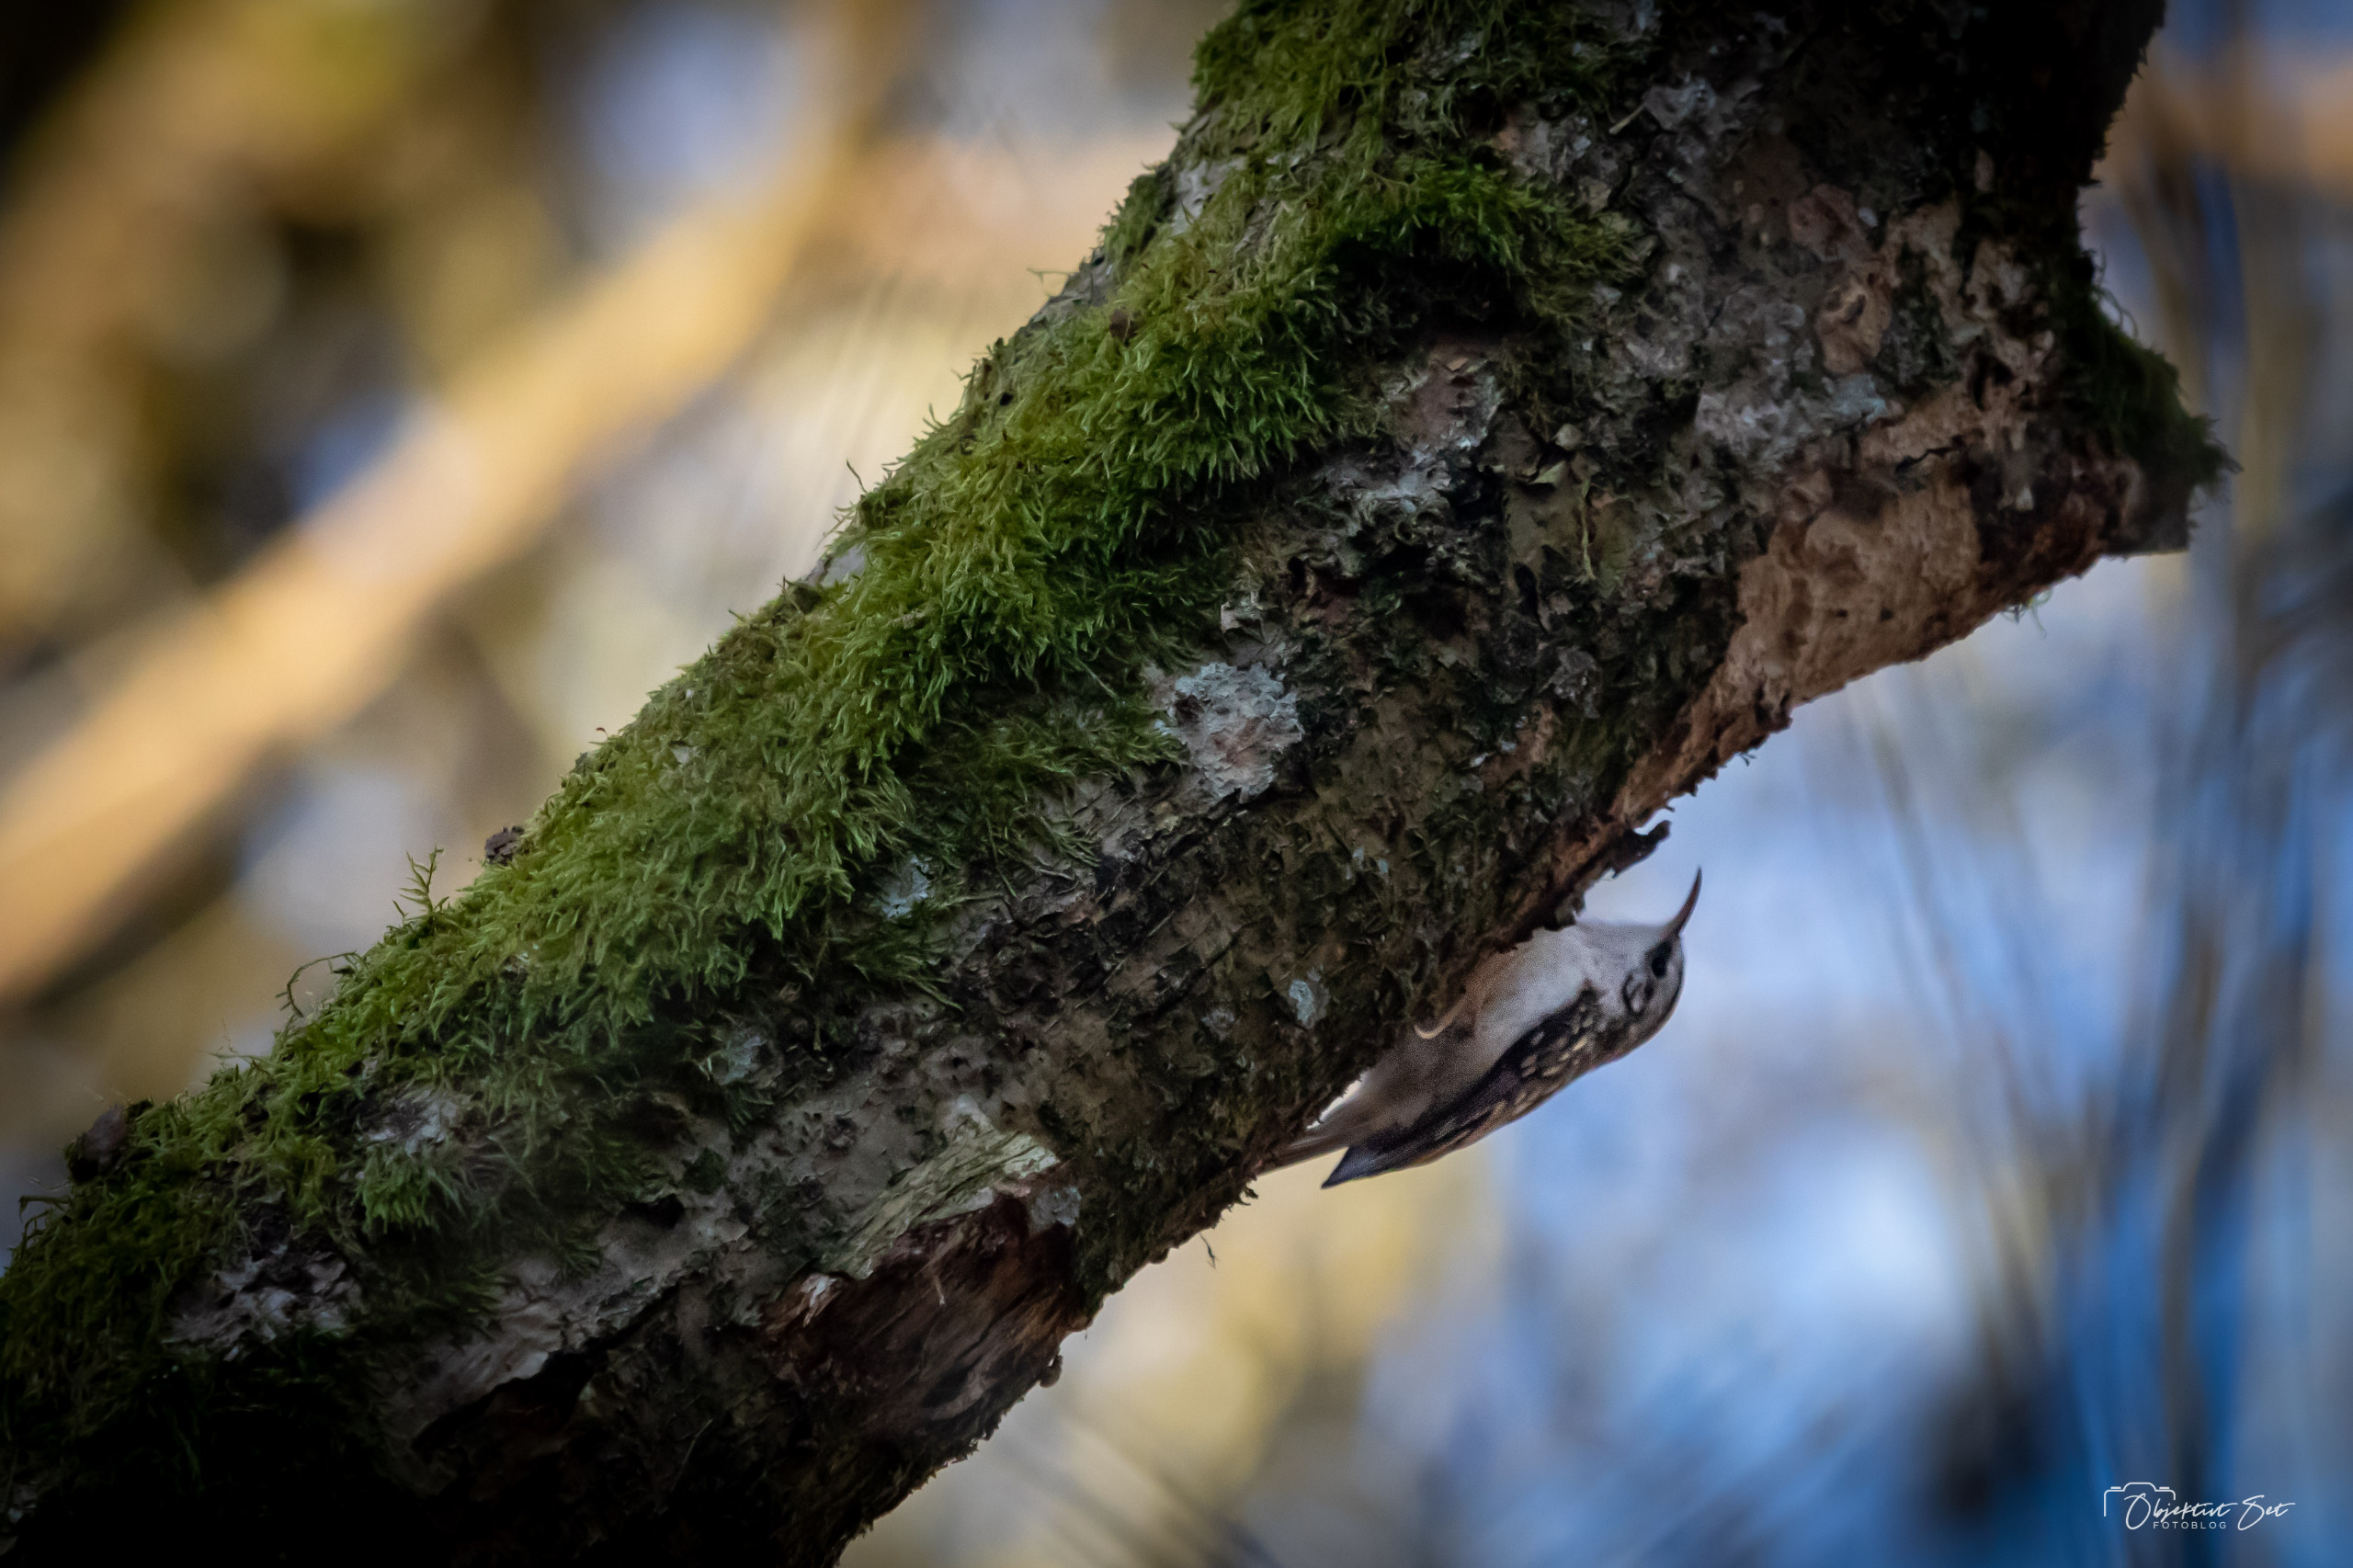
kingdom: Animalia
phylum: Chordata
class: Aves
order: Passeriformes
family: Certhiidae
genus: Certhia
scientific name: Certhia familiaris
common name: Træløber
